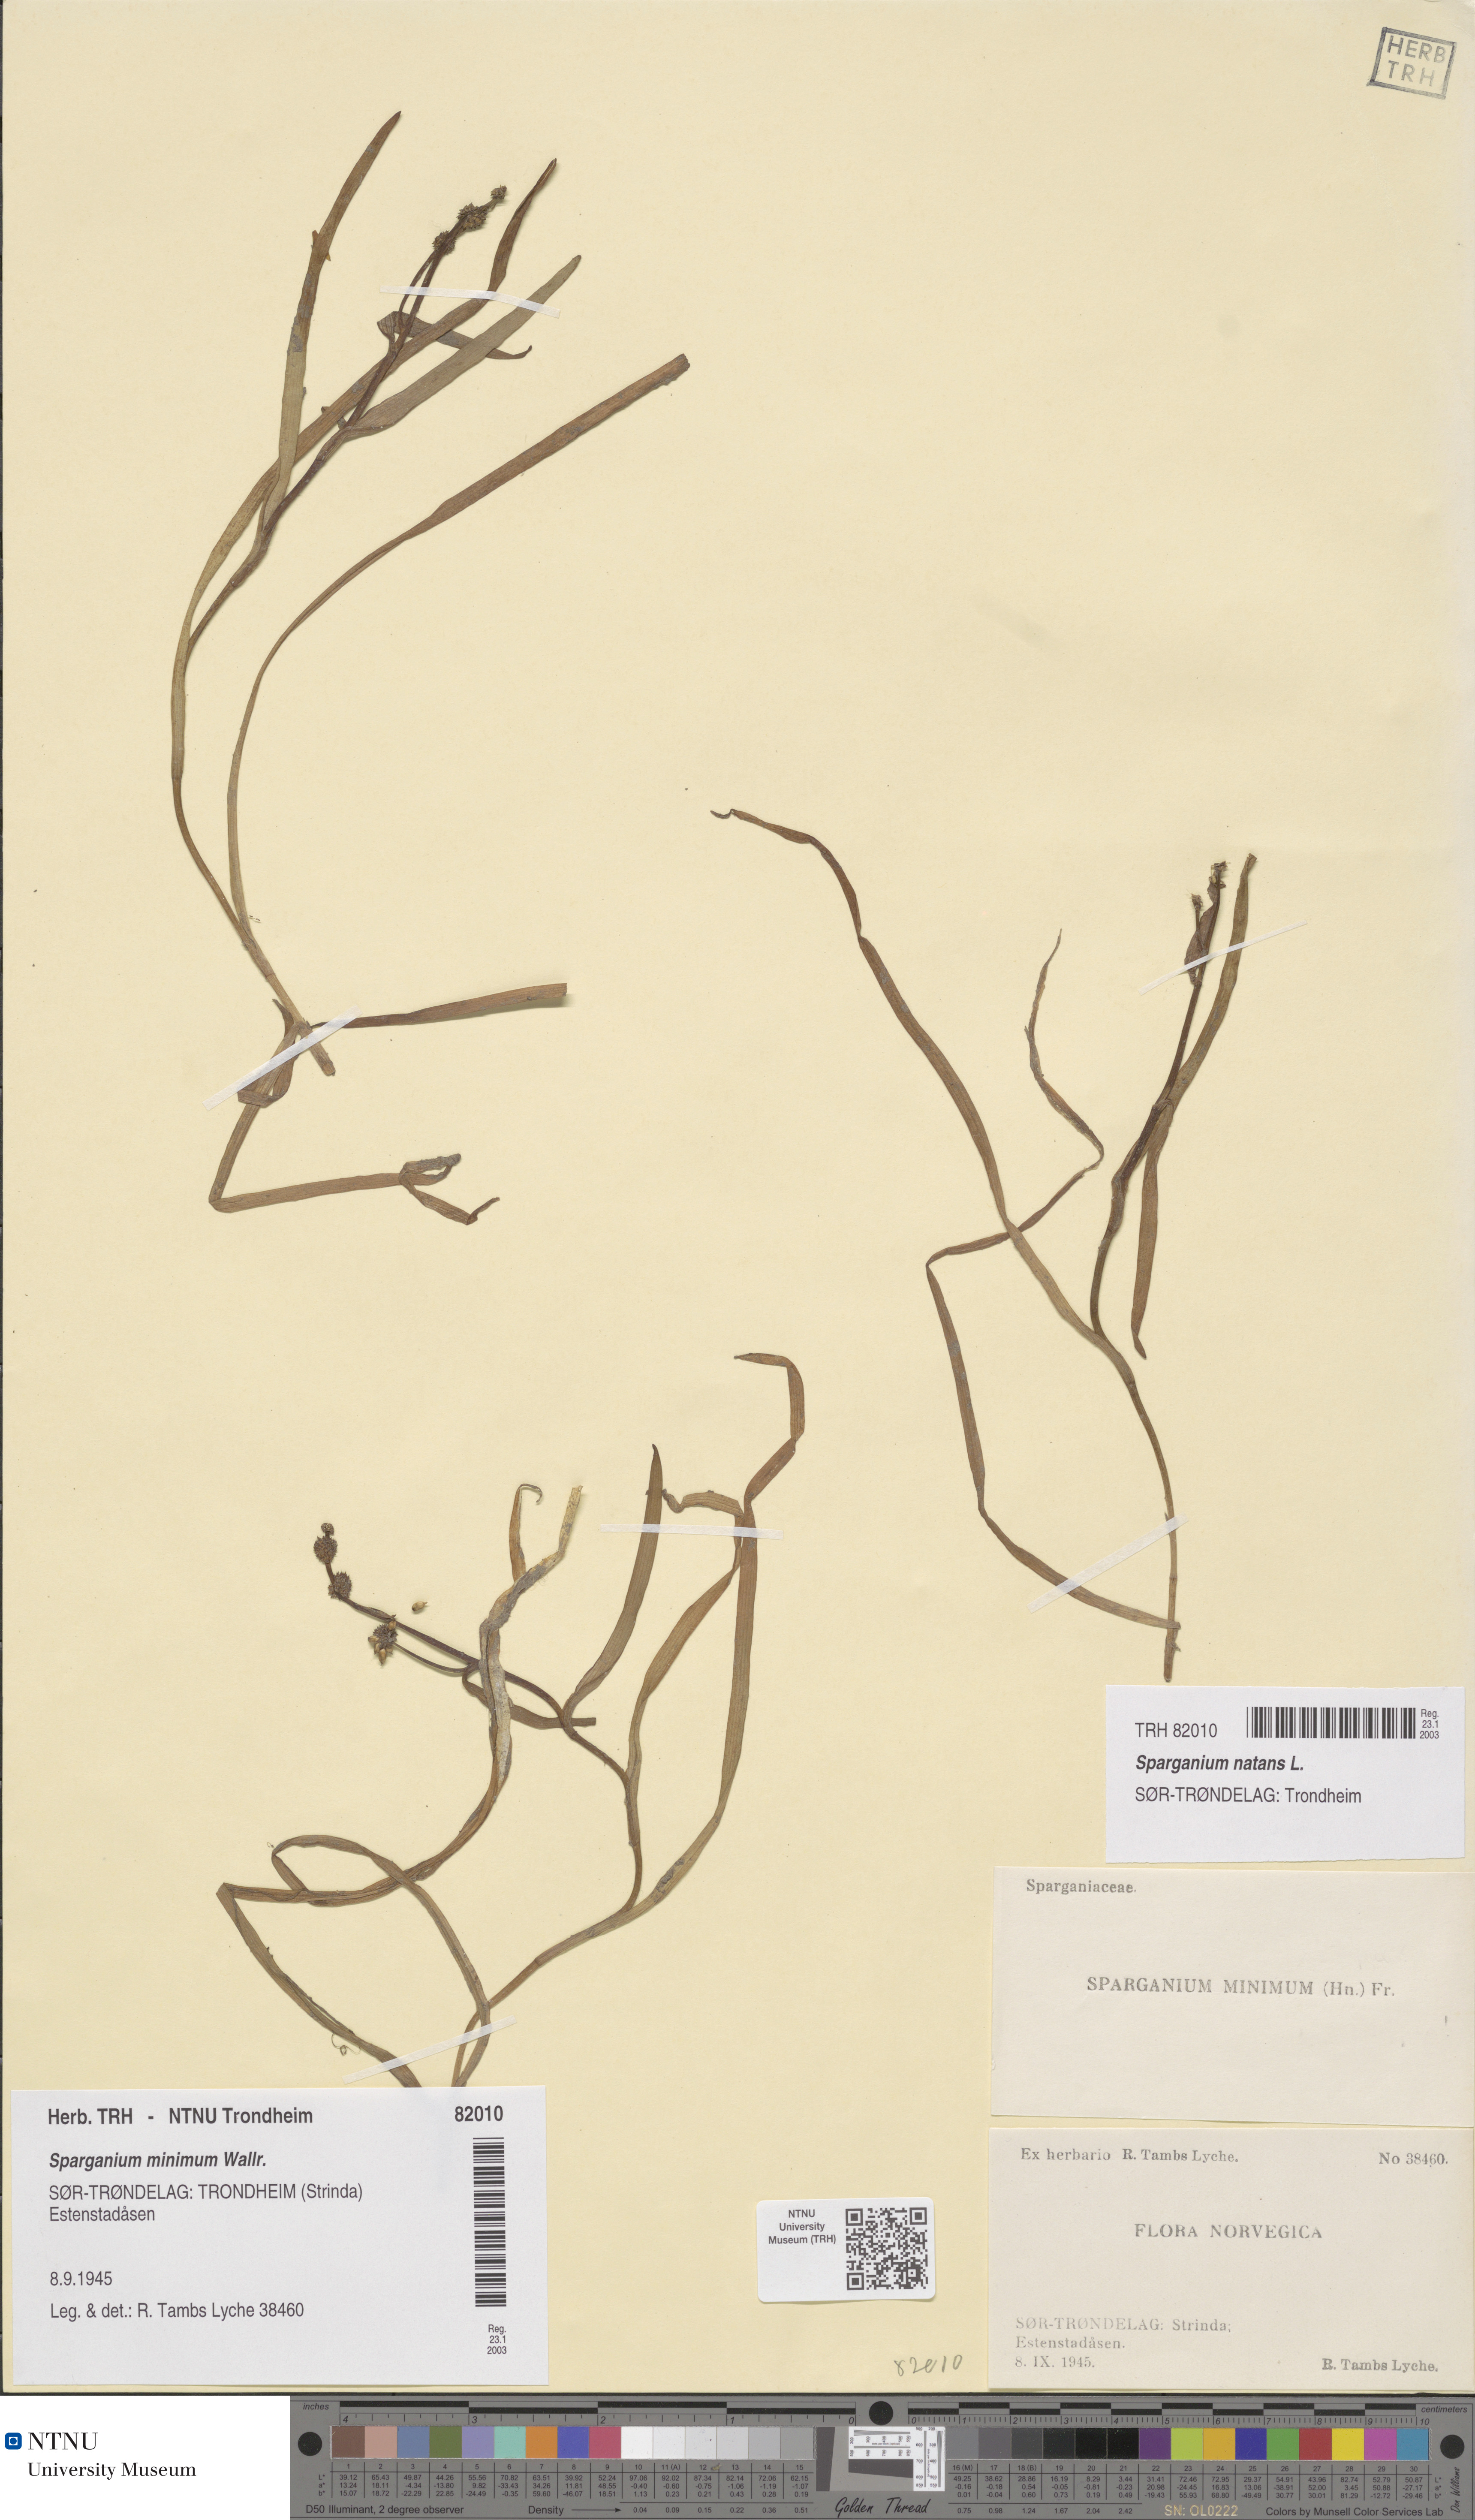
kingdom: Plantae
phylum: Tracheophyta
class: Liliopsida
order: Poales
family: Typhaceae
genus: Sparganium
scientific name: Sparganium natans
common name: Least bur-reed
